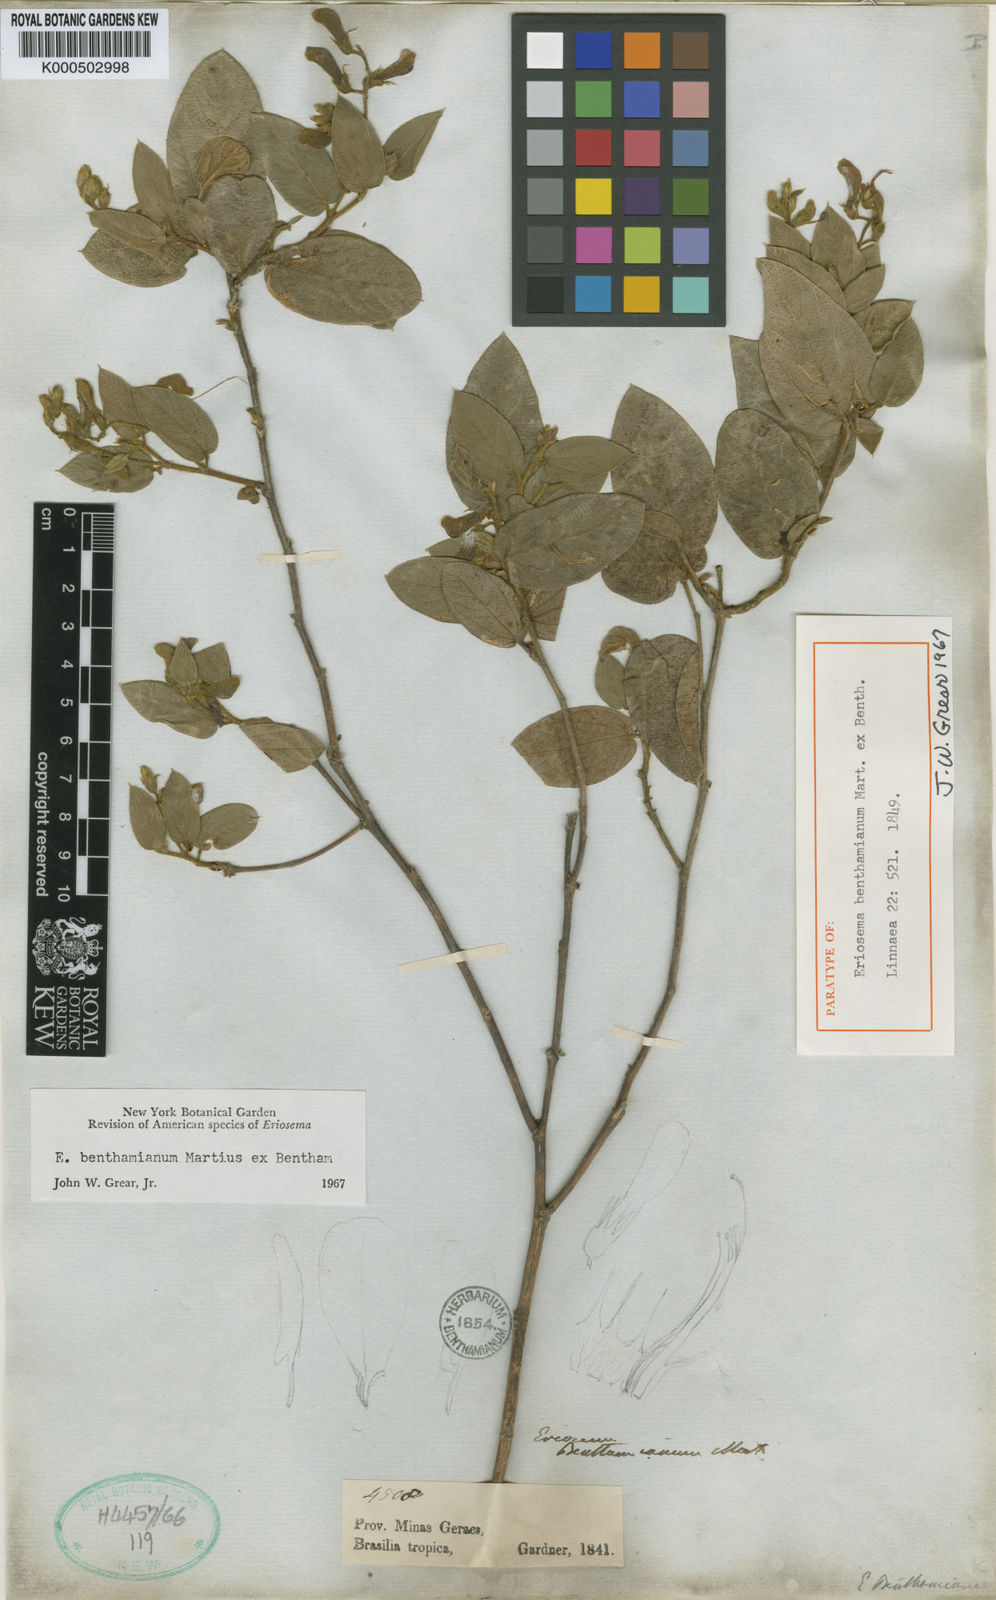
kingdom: Plantae
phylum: Tracheophyta
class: Magnoliopsida
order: Fabales
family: Fabaceae
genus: Eriosema
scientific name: Eriosema benthamianum
